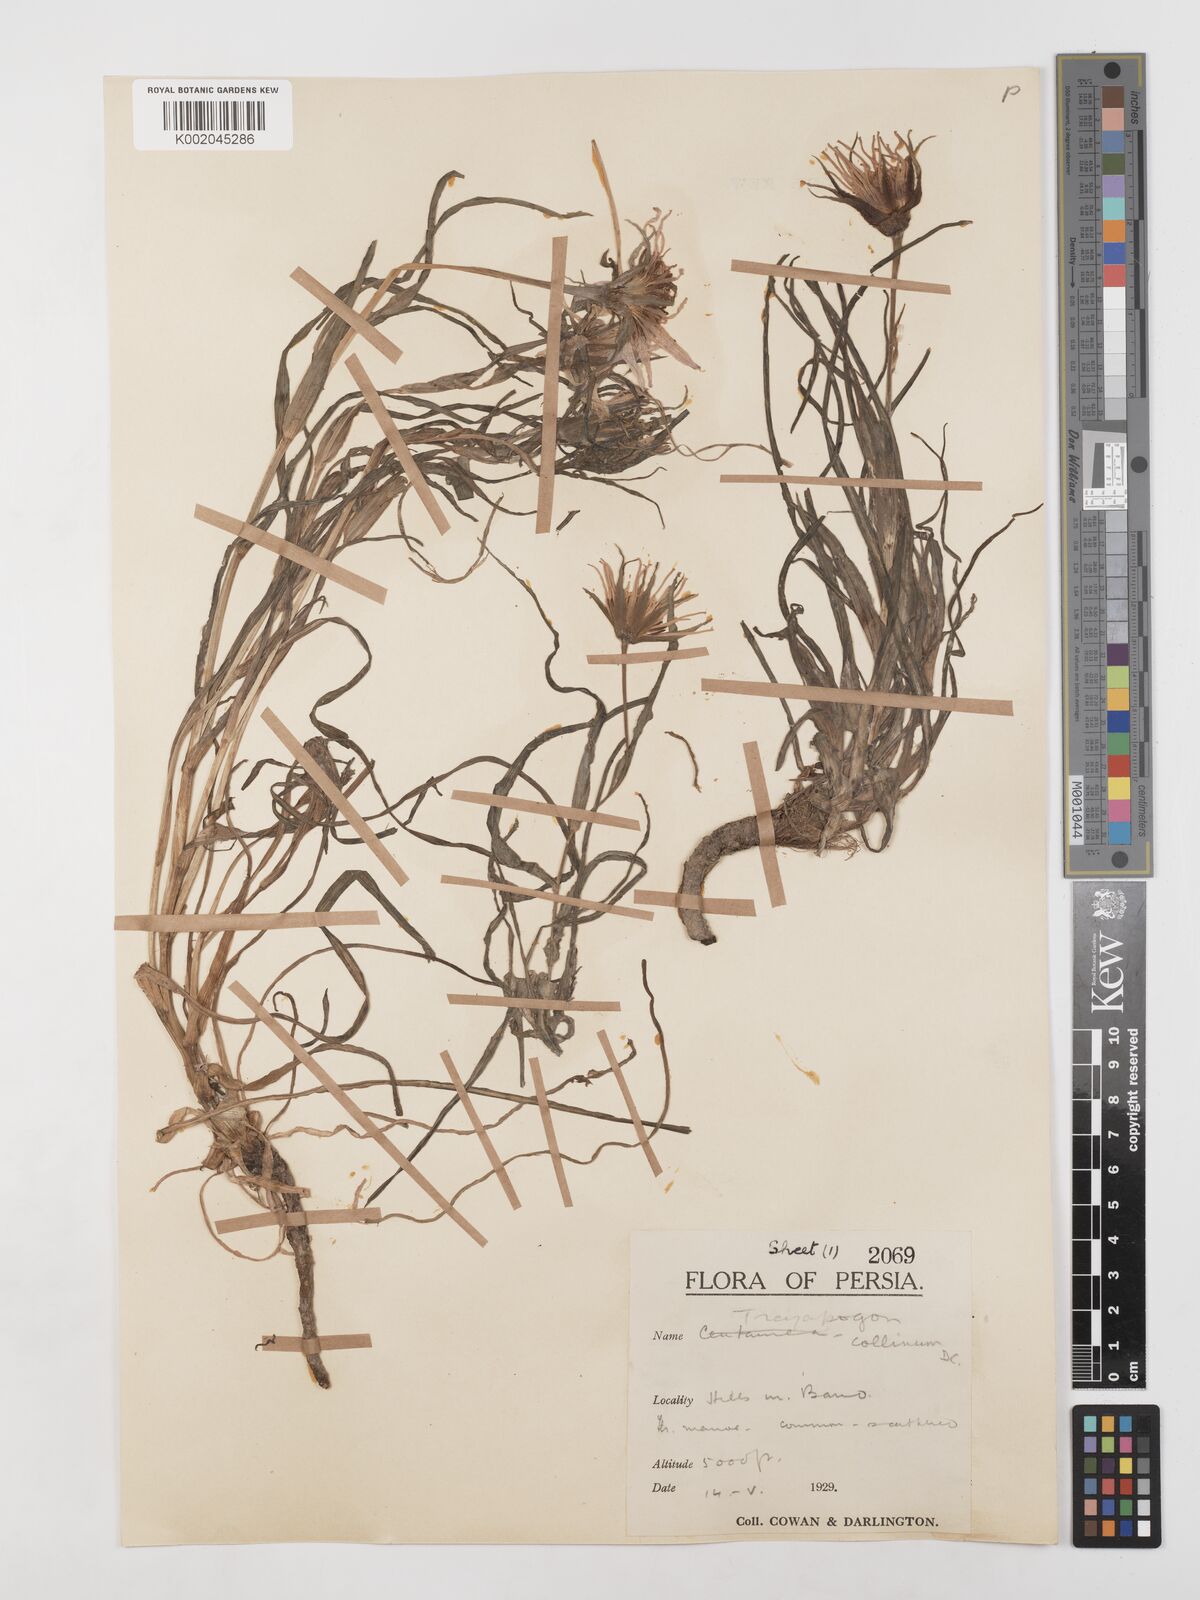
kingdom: Plantae
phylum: Tracheophyta
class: Magnoliopsida
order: Asterales
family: Asteraceae
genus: Tragopogon
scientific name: Tragopogon collinus
